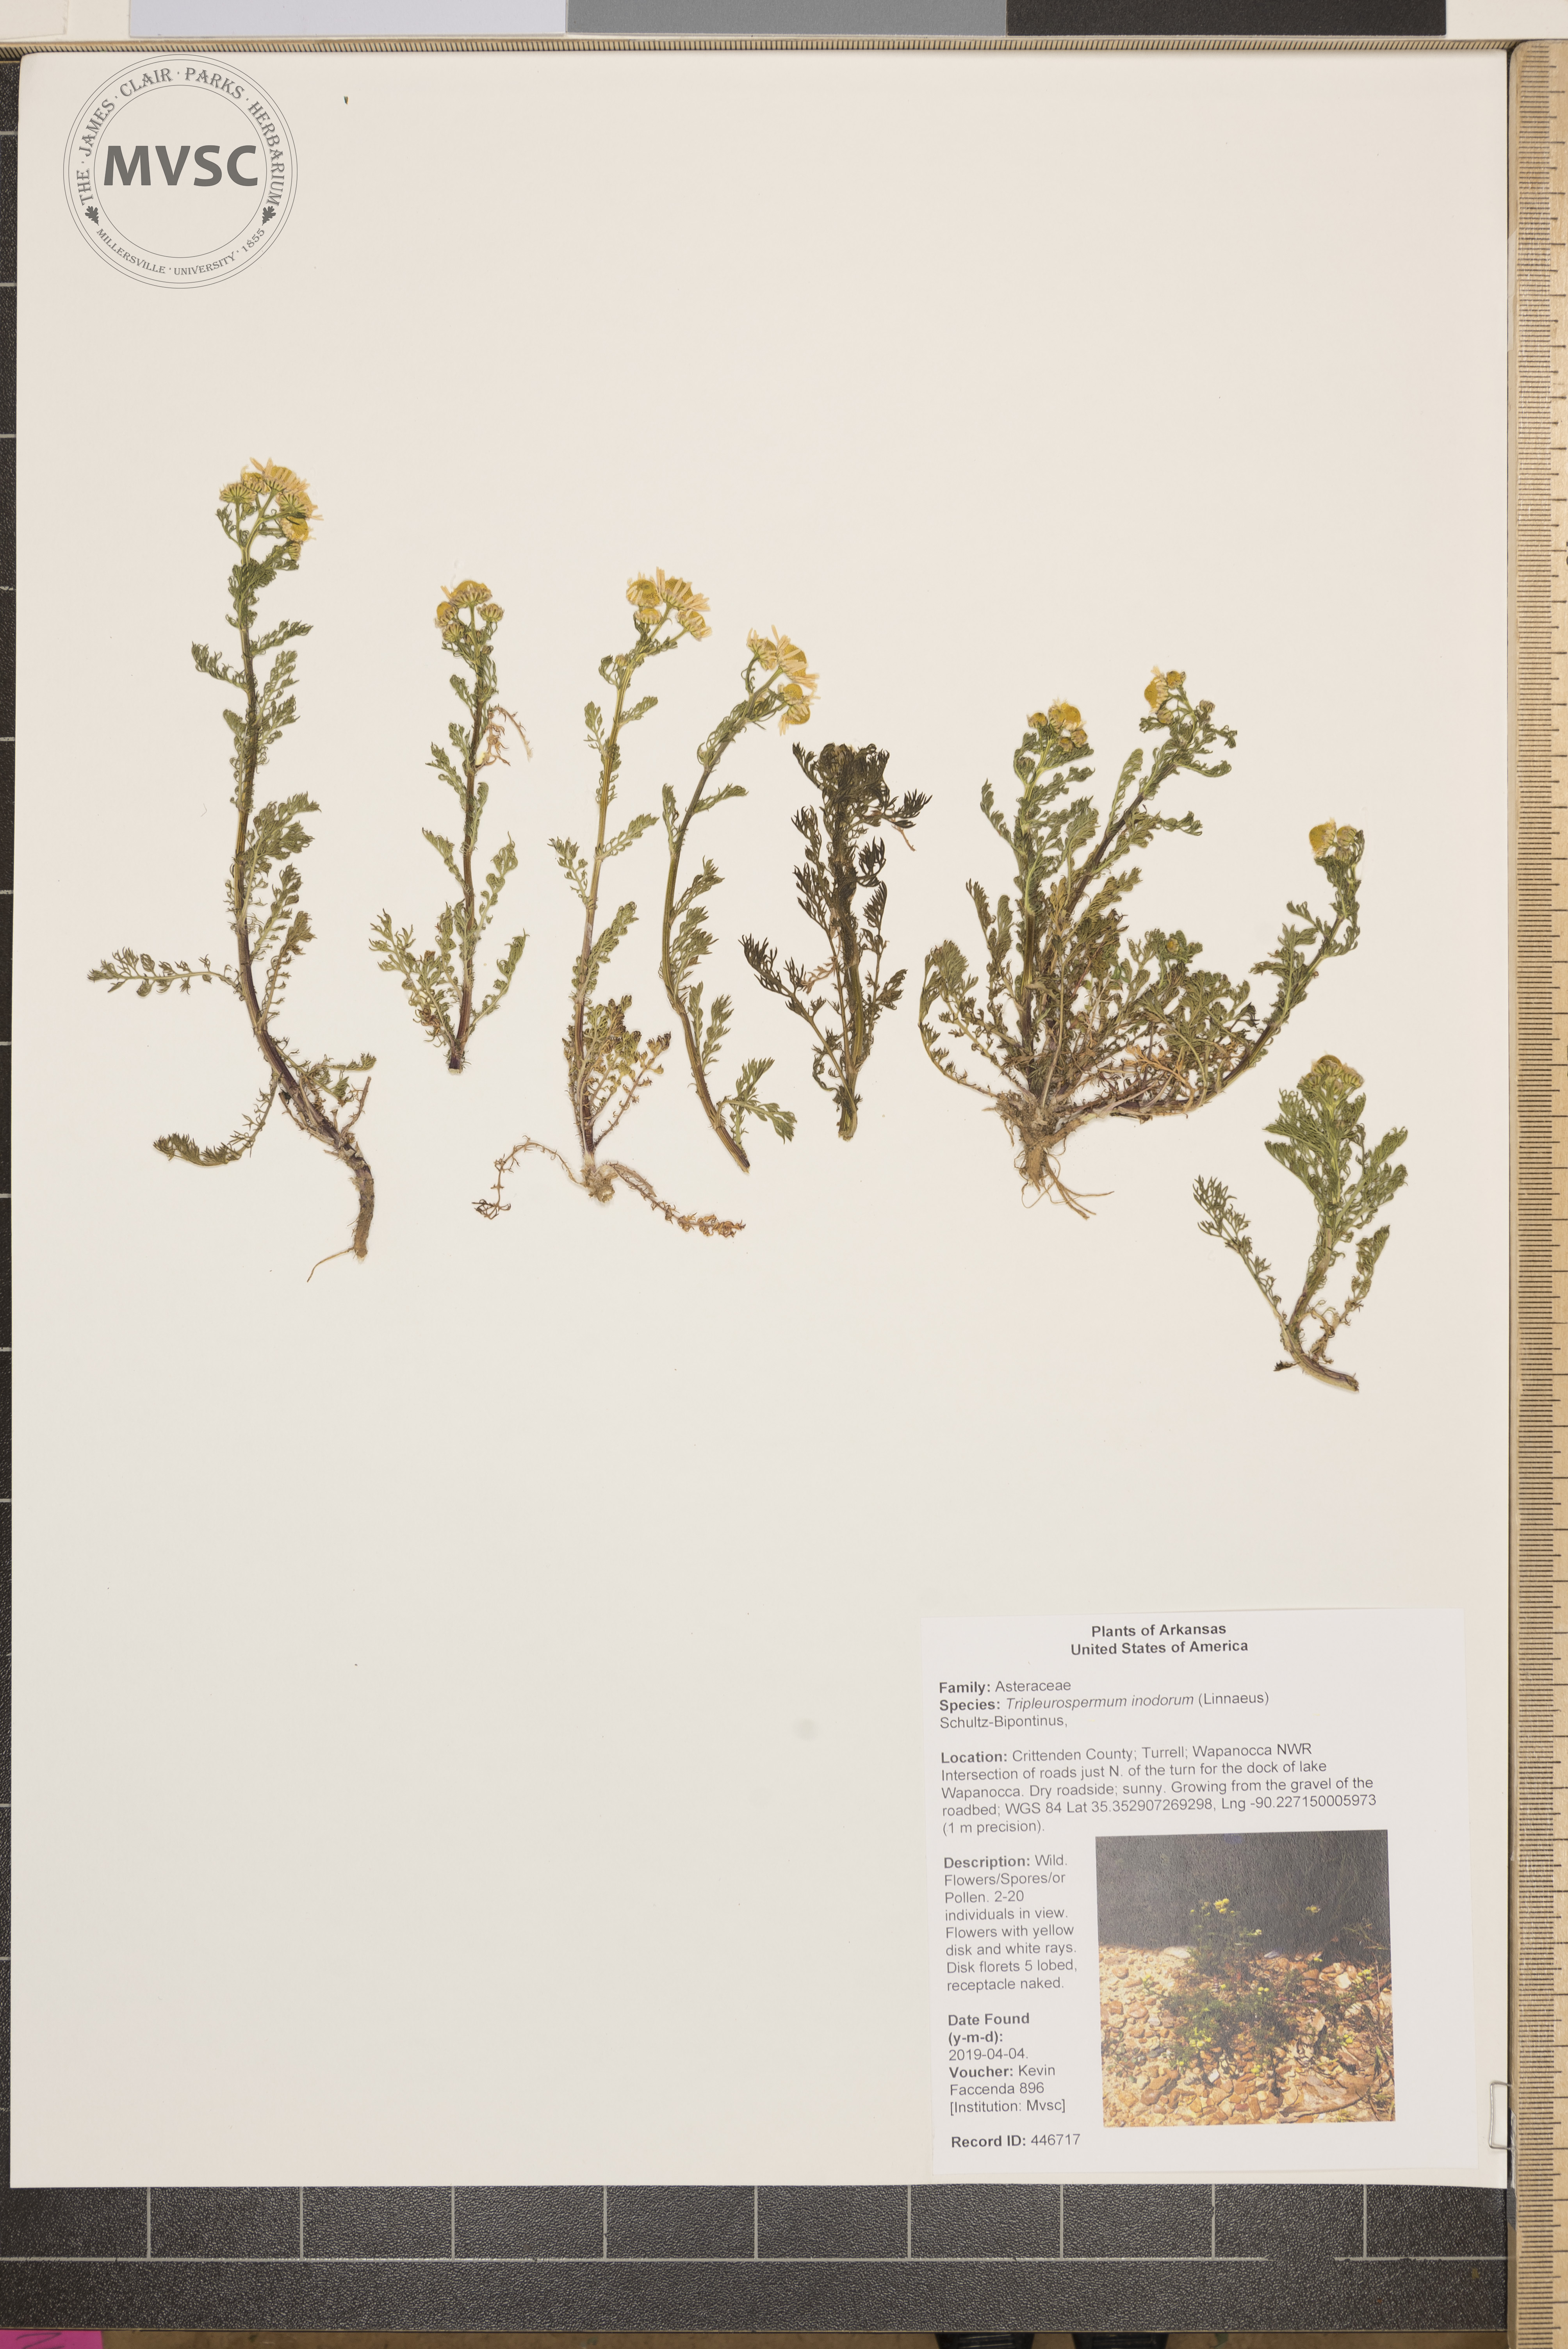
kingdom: Plantae
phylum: Tracheophyta
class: Magnoliopsida
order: Asterales
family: Asteraceae
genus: Tripleurospermum
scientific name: Tripleurospermum inodorum
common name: Scentless mayweed
